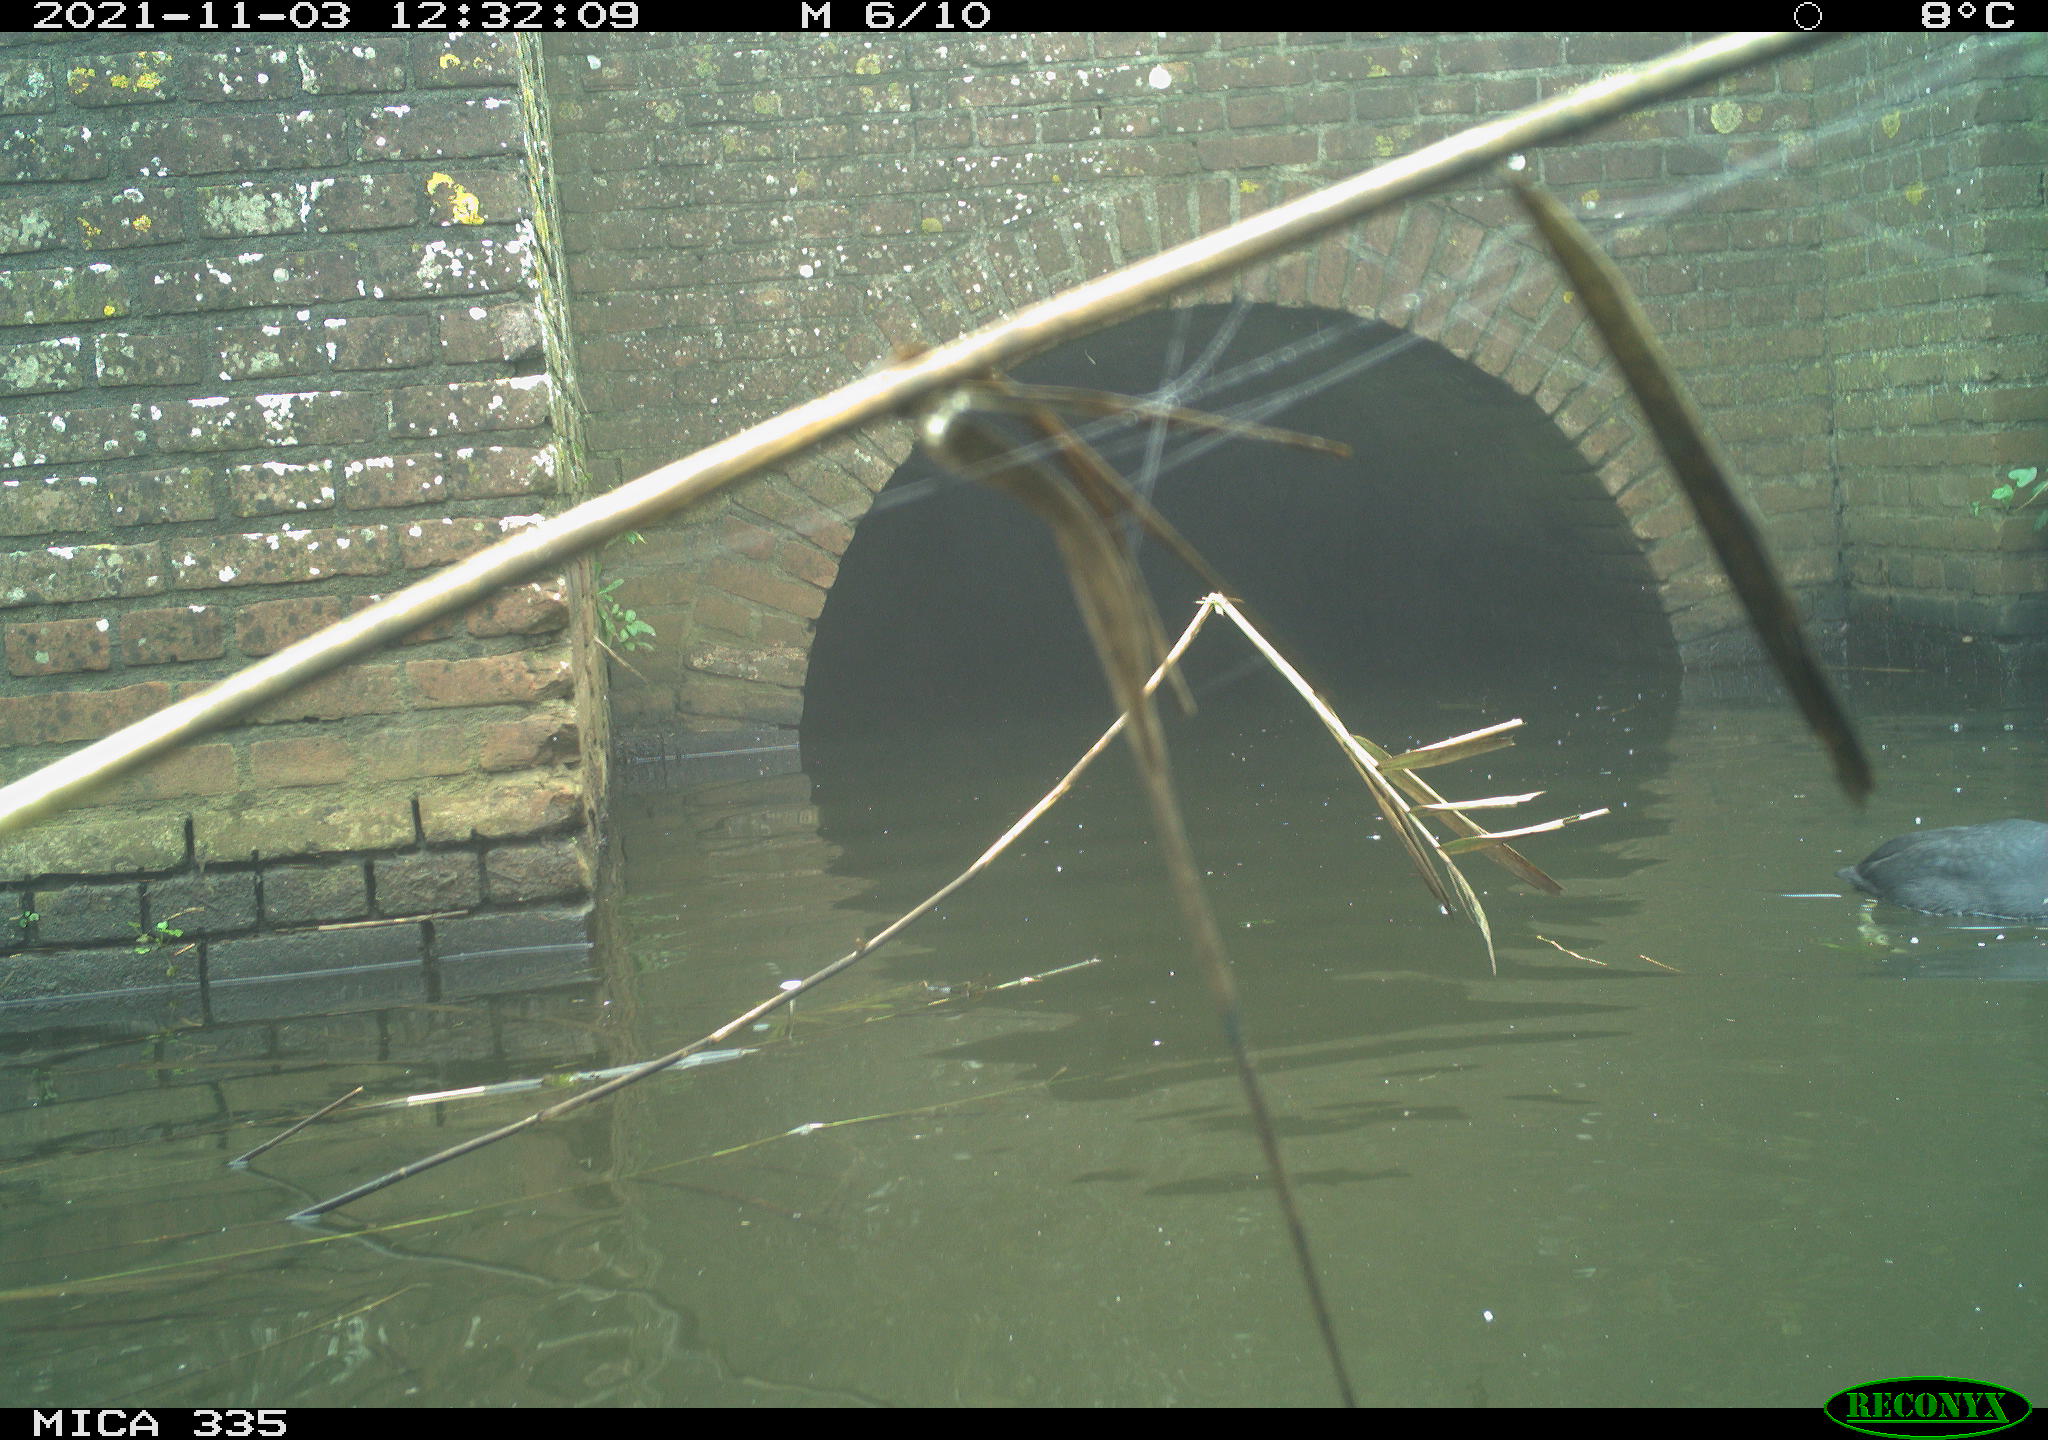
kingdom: Animalia
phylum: Chordata
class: Aves
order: Gruiformes
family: Rallidae
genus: Fulica
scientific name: Fulica atra
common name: Eurasian coot
